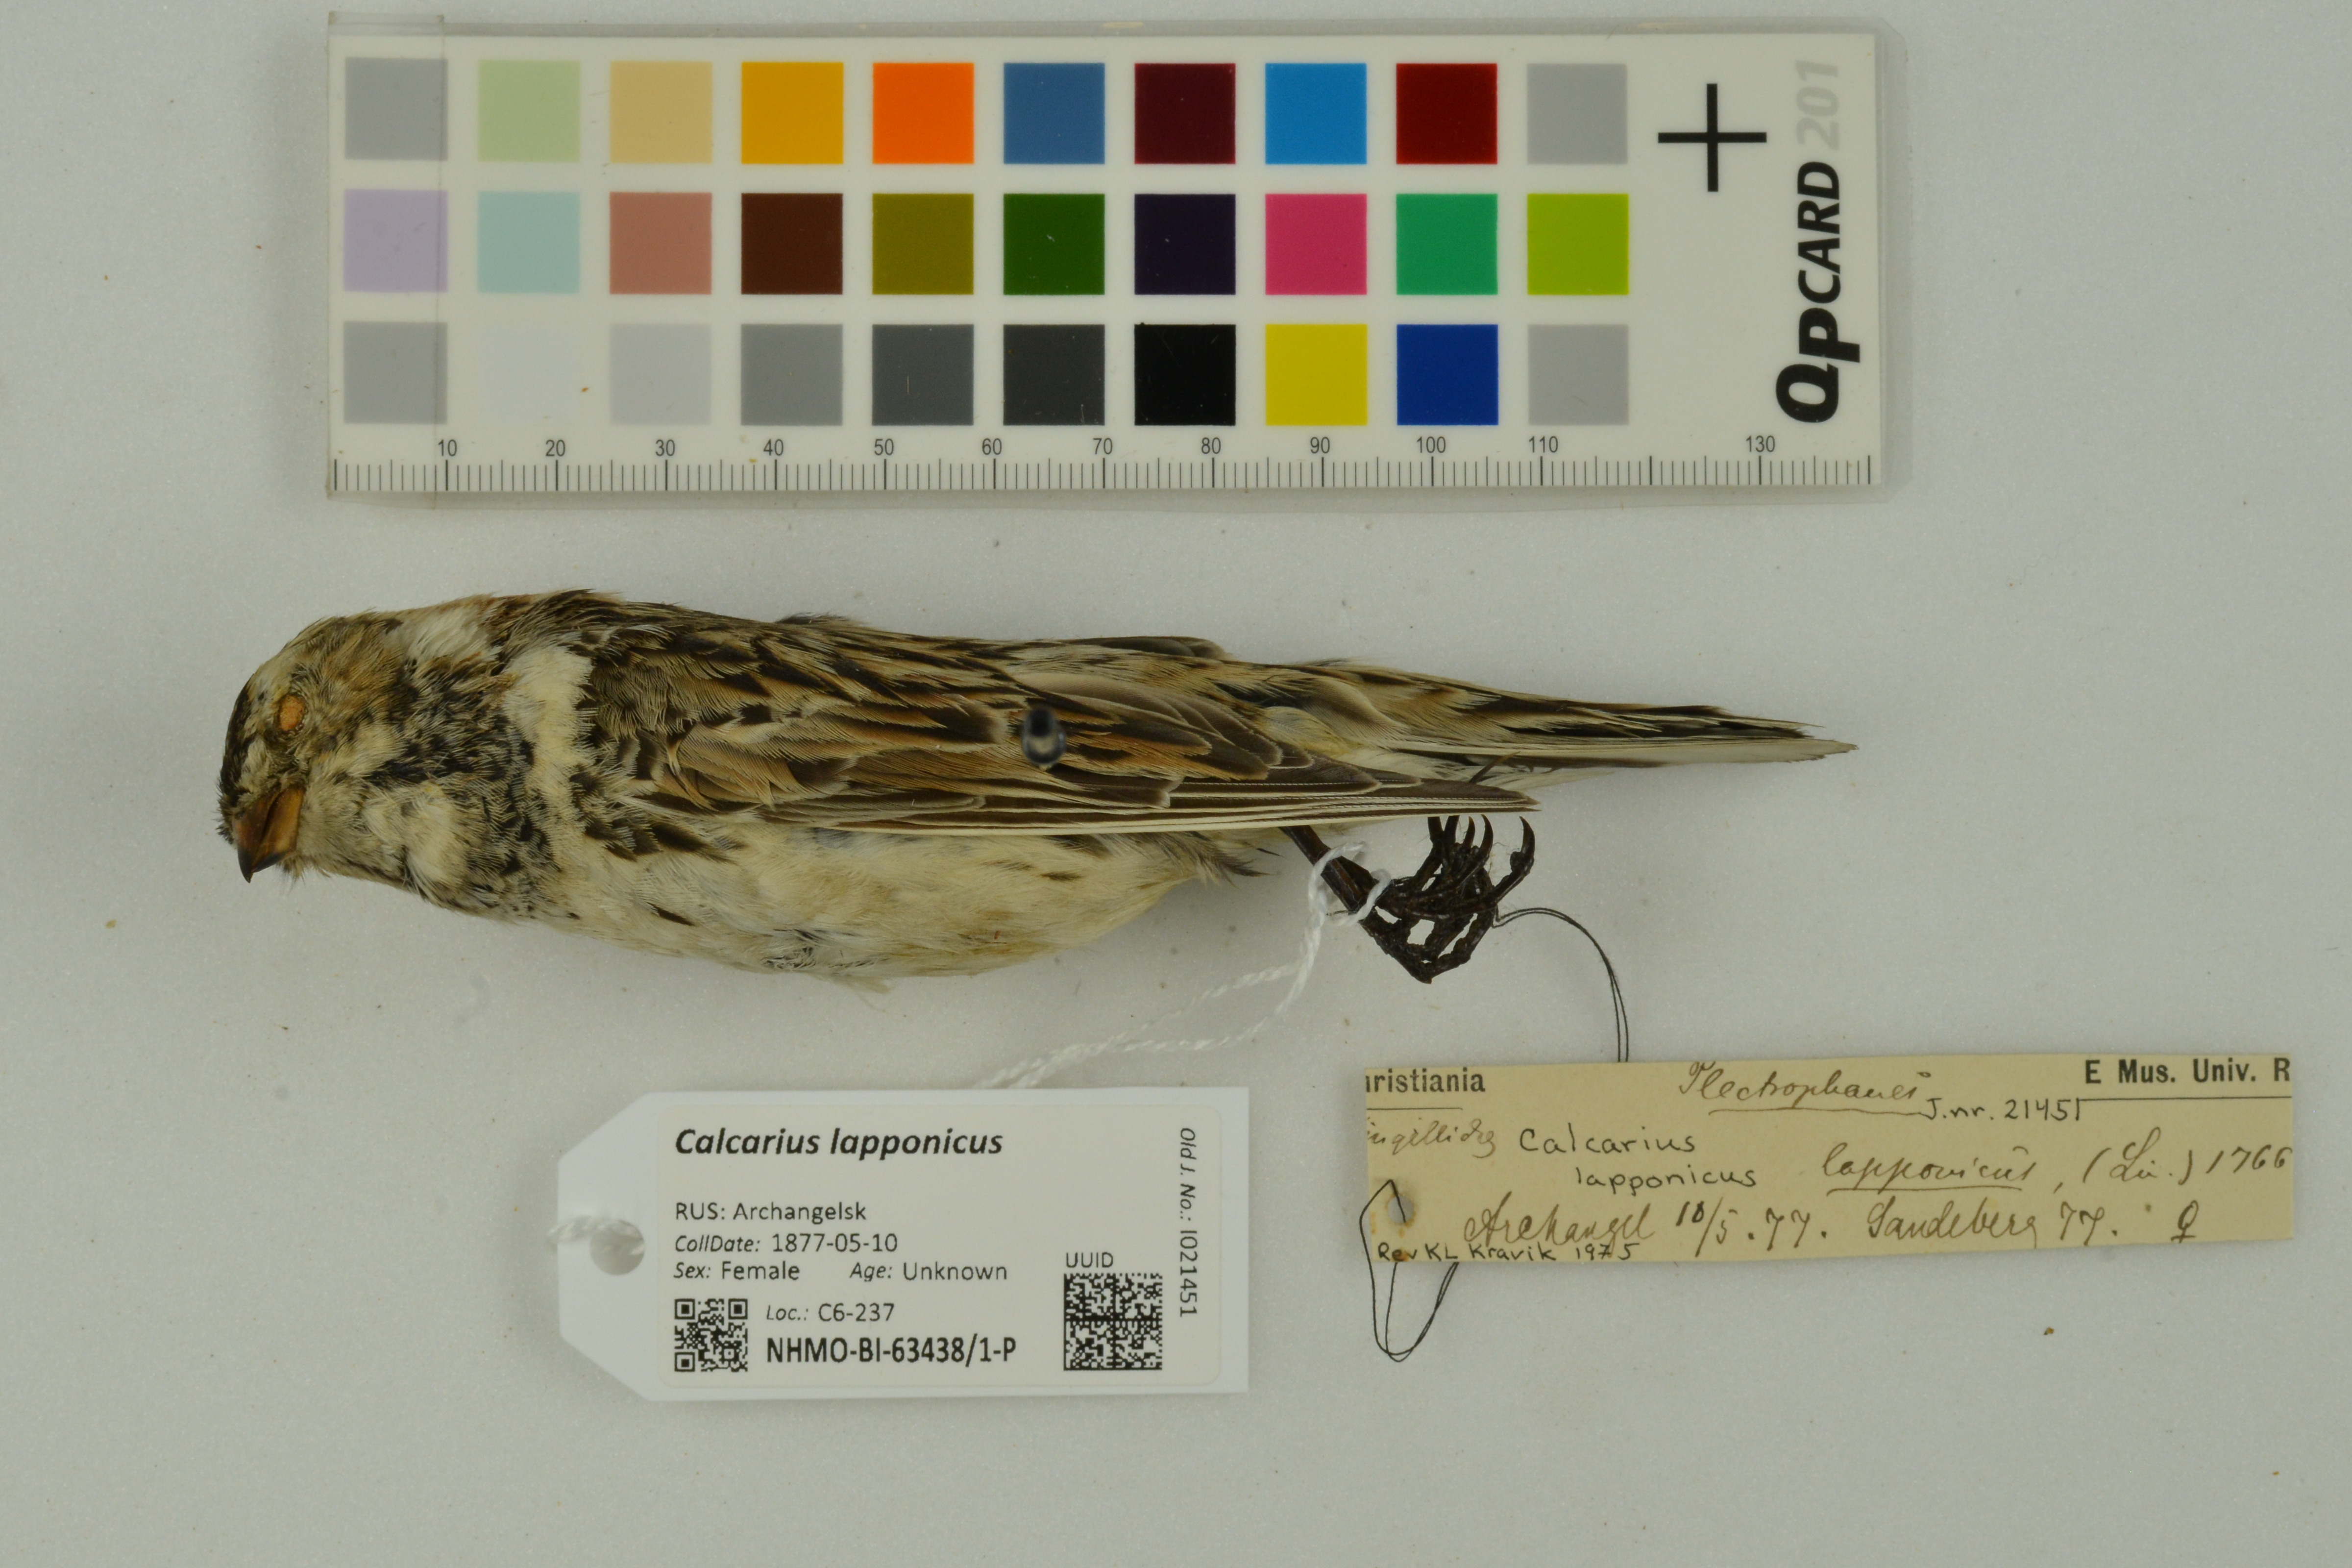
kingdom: Animalia
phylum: Chordata
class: Aves
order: Passeriformes
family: Calcariidae
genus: Calcarius
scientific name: Calcarius lapponicus
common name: Lapland longspur
